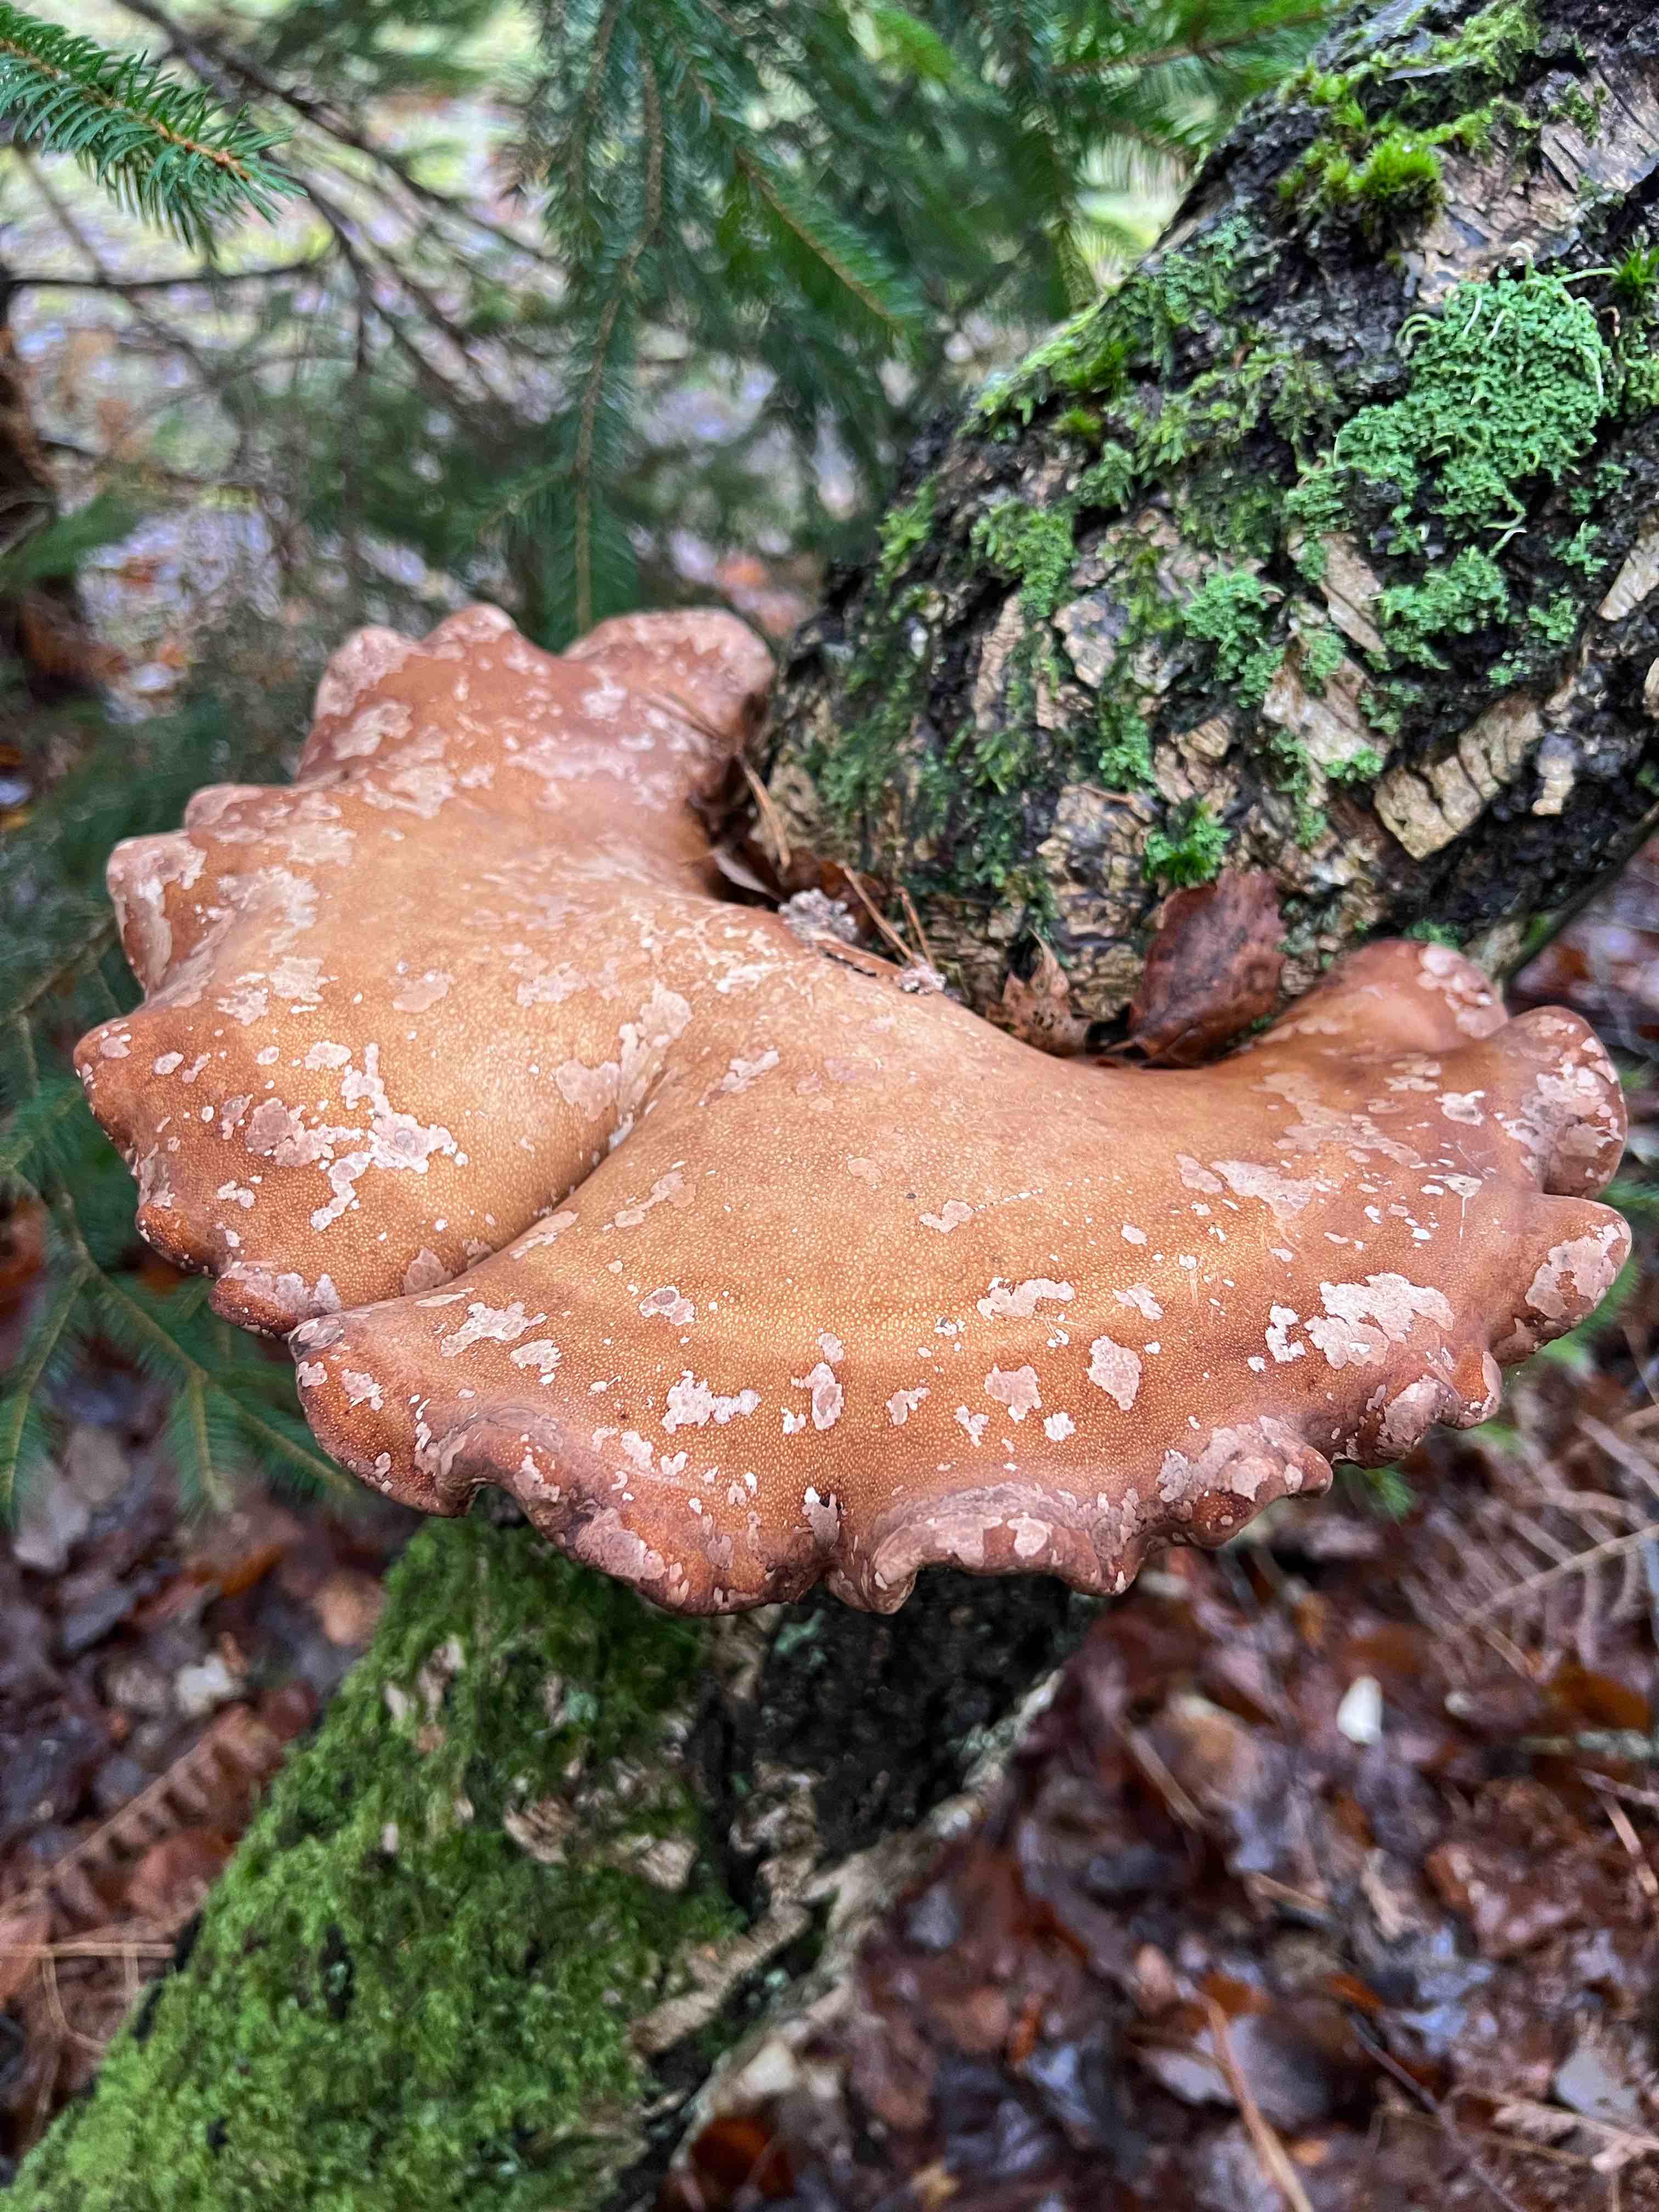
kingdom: Fungi
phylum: Basidiomycota
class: Agaricomycetes
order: Polyporales
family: Fomitopsidaceae
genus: Fomitopsis
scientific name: Fomitopsis betulina
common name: birkeporesvamp
